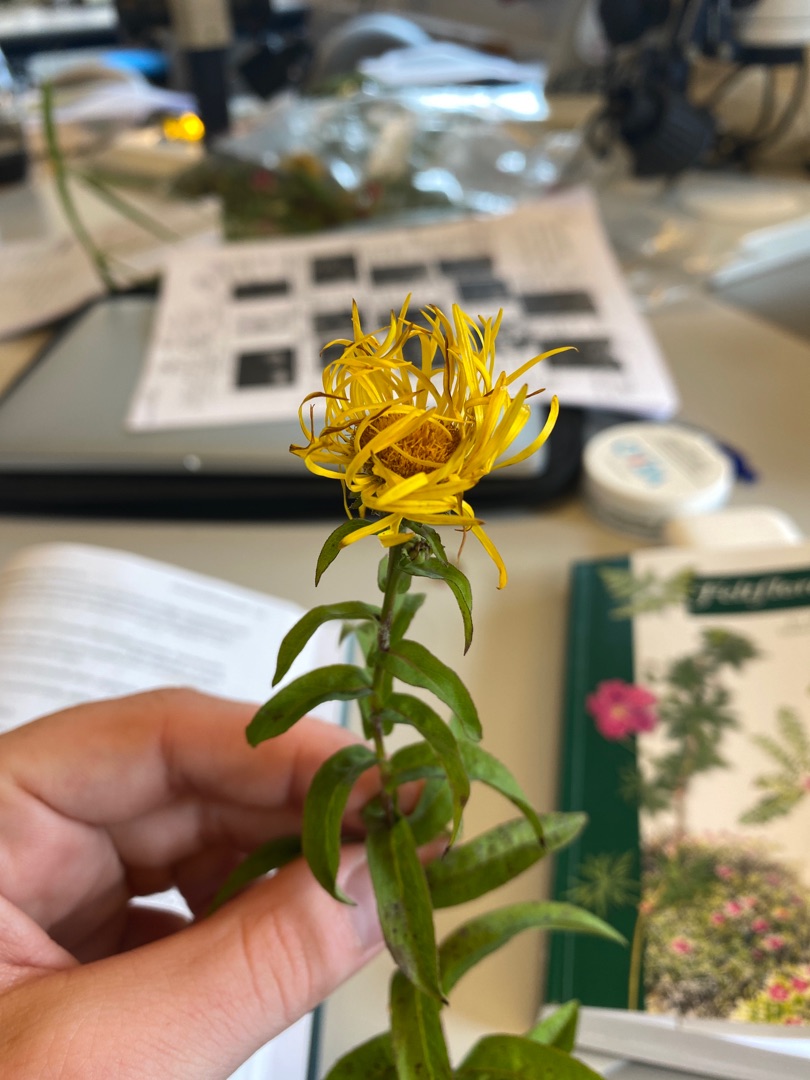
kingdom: Plantae
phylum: Tracheophyta
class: Magnoliopsida
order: Asterales
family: Asteraceae
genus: Pentanema
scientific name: Pentanema salicinum
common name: Pile-alant
